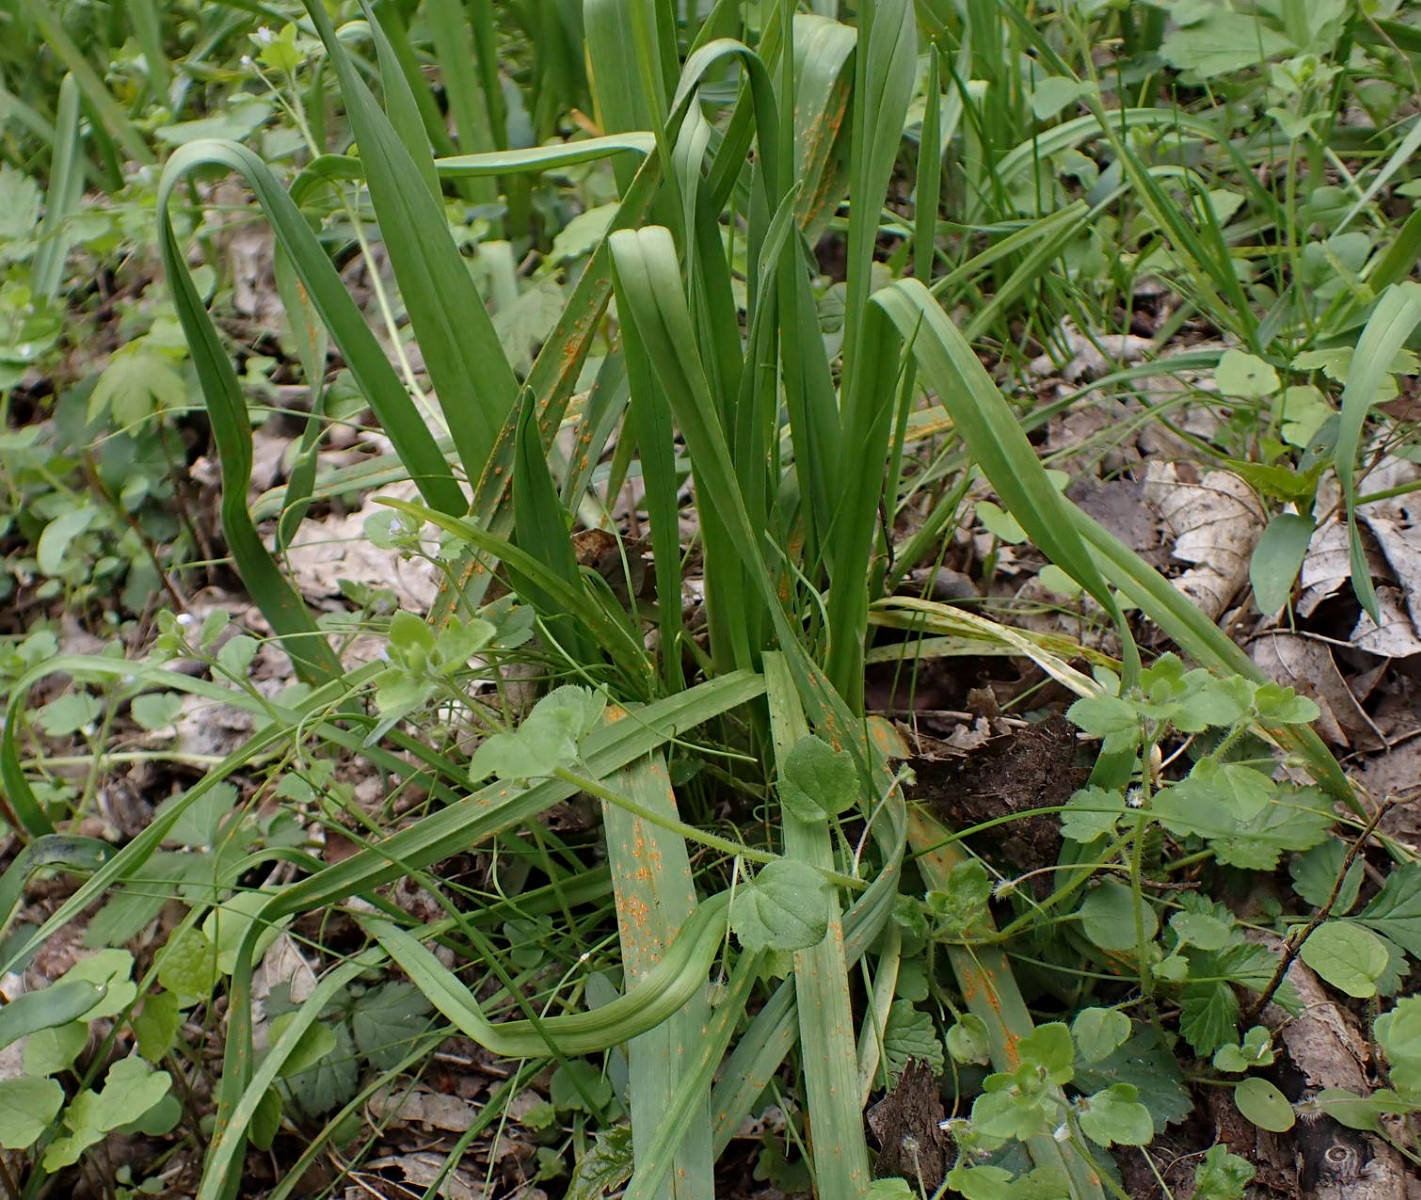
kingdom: Fungi
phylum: Basidiomycota
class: Pucciniomycetes
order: Pucciniales
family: Pucciniaceae
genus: Puccinia
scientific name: Puccinia porri
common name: Allium rust
